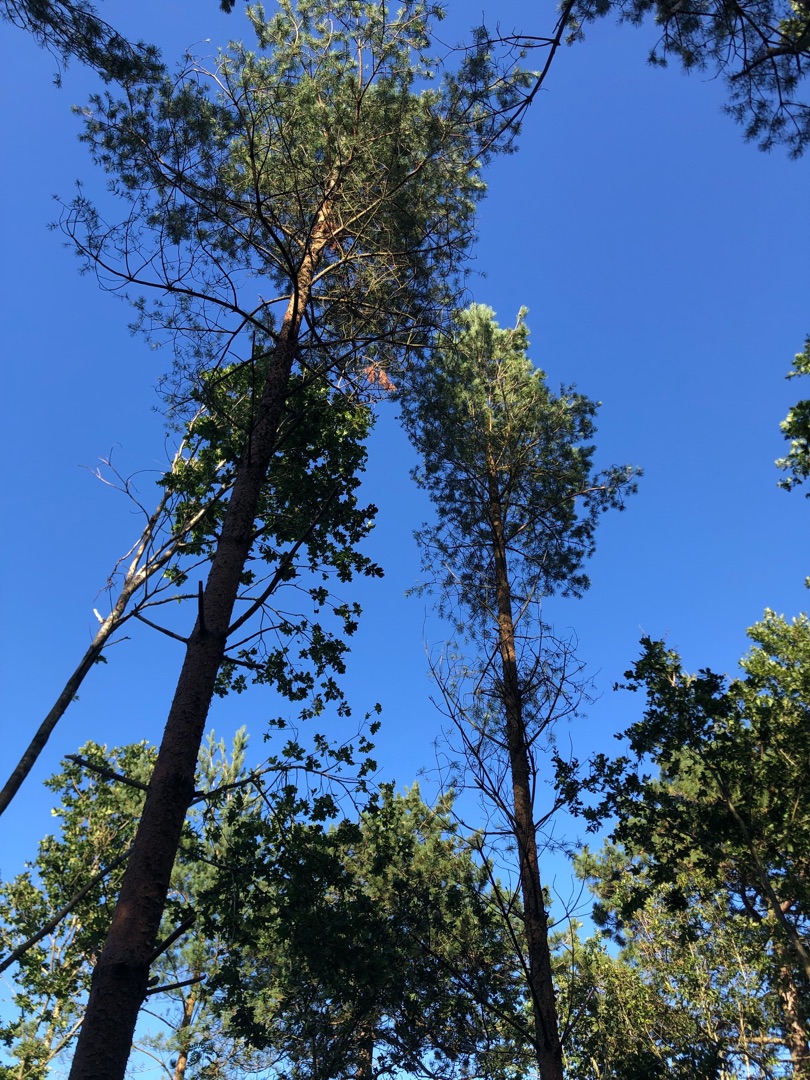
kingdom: Plantae
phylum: Tracheophyta
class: Pinopsida
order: Pinales
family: Pinaceae
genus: Pinus
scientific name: Pinus sylvestris
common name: Skov-fyr
